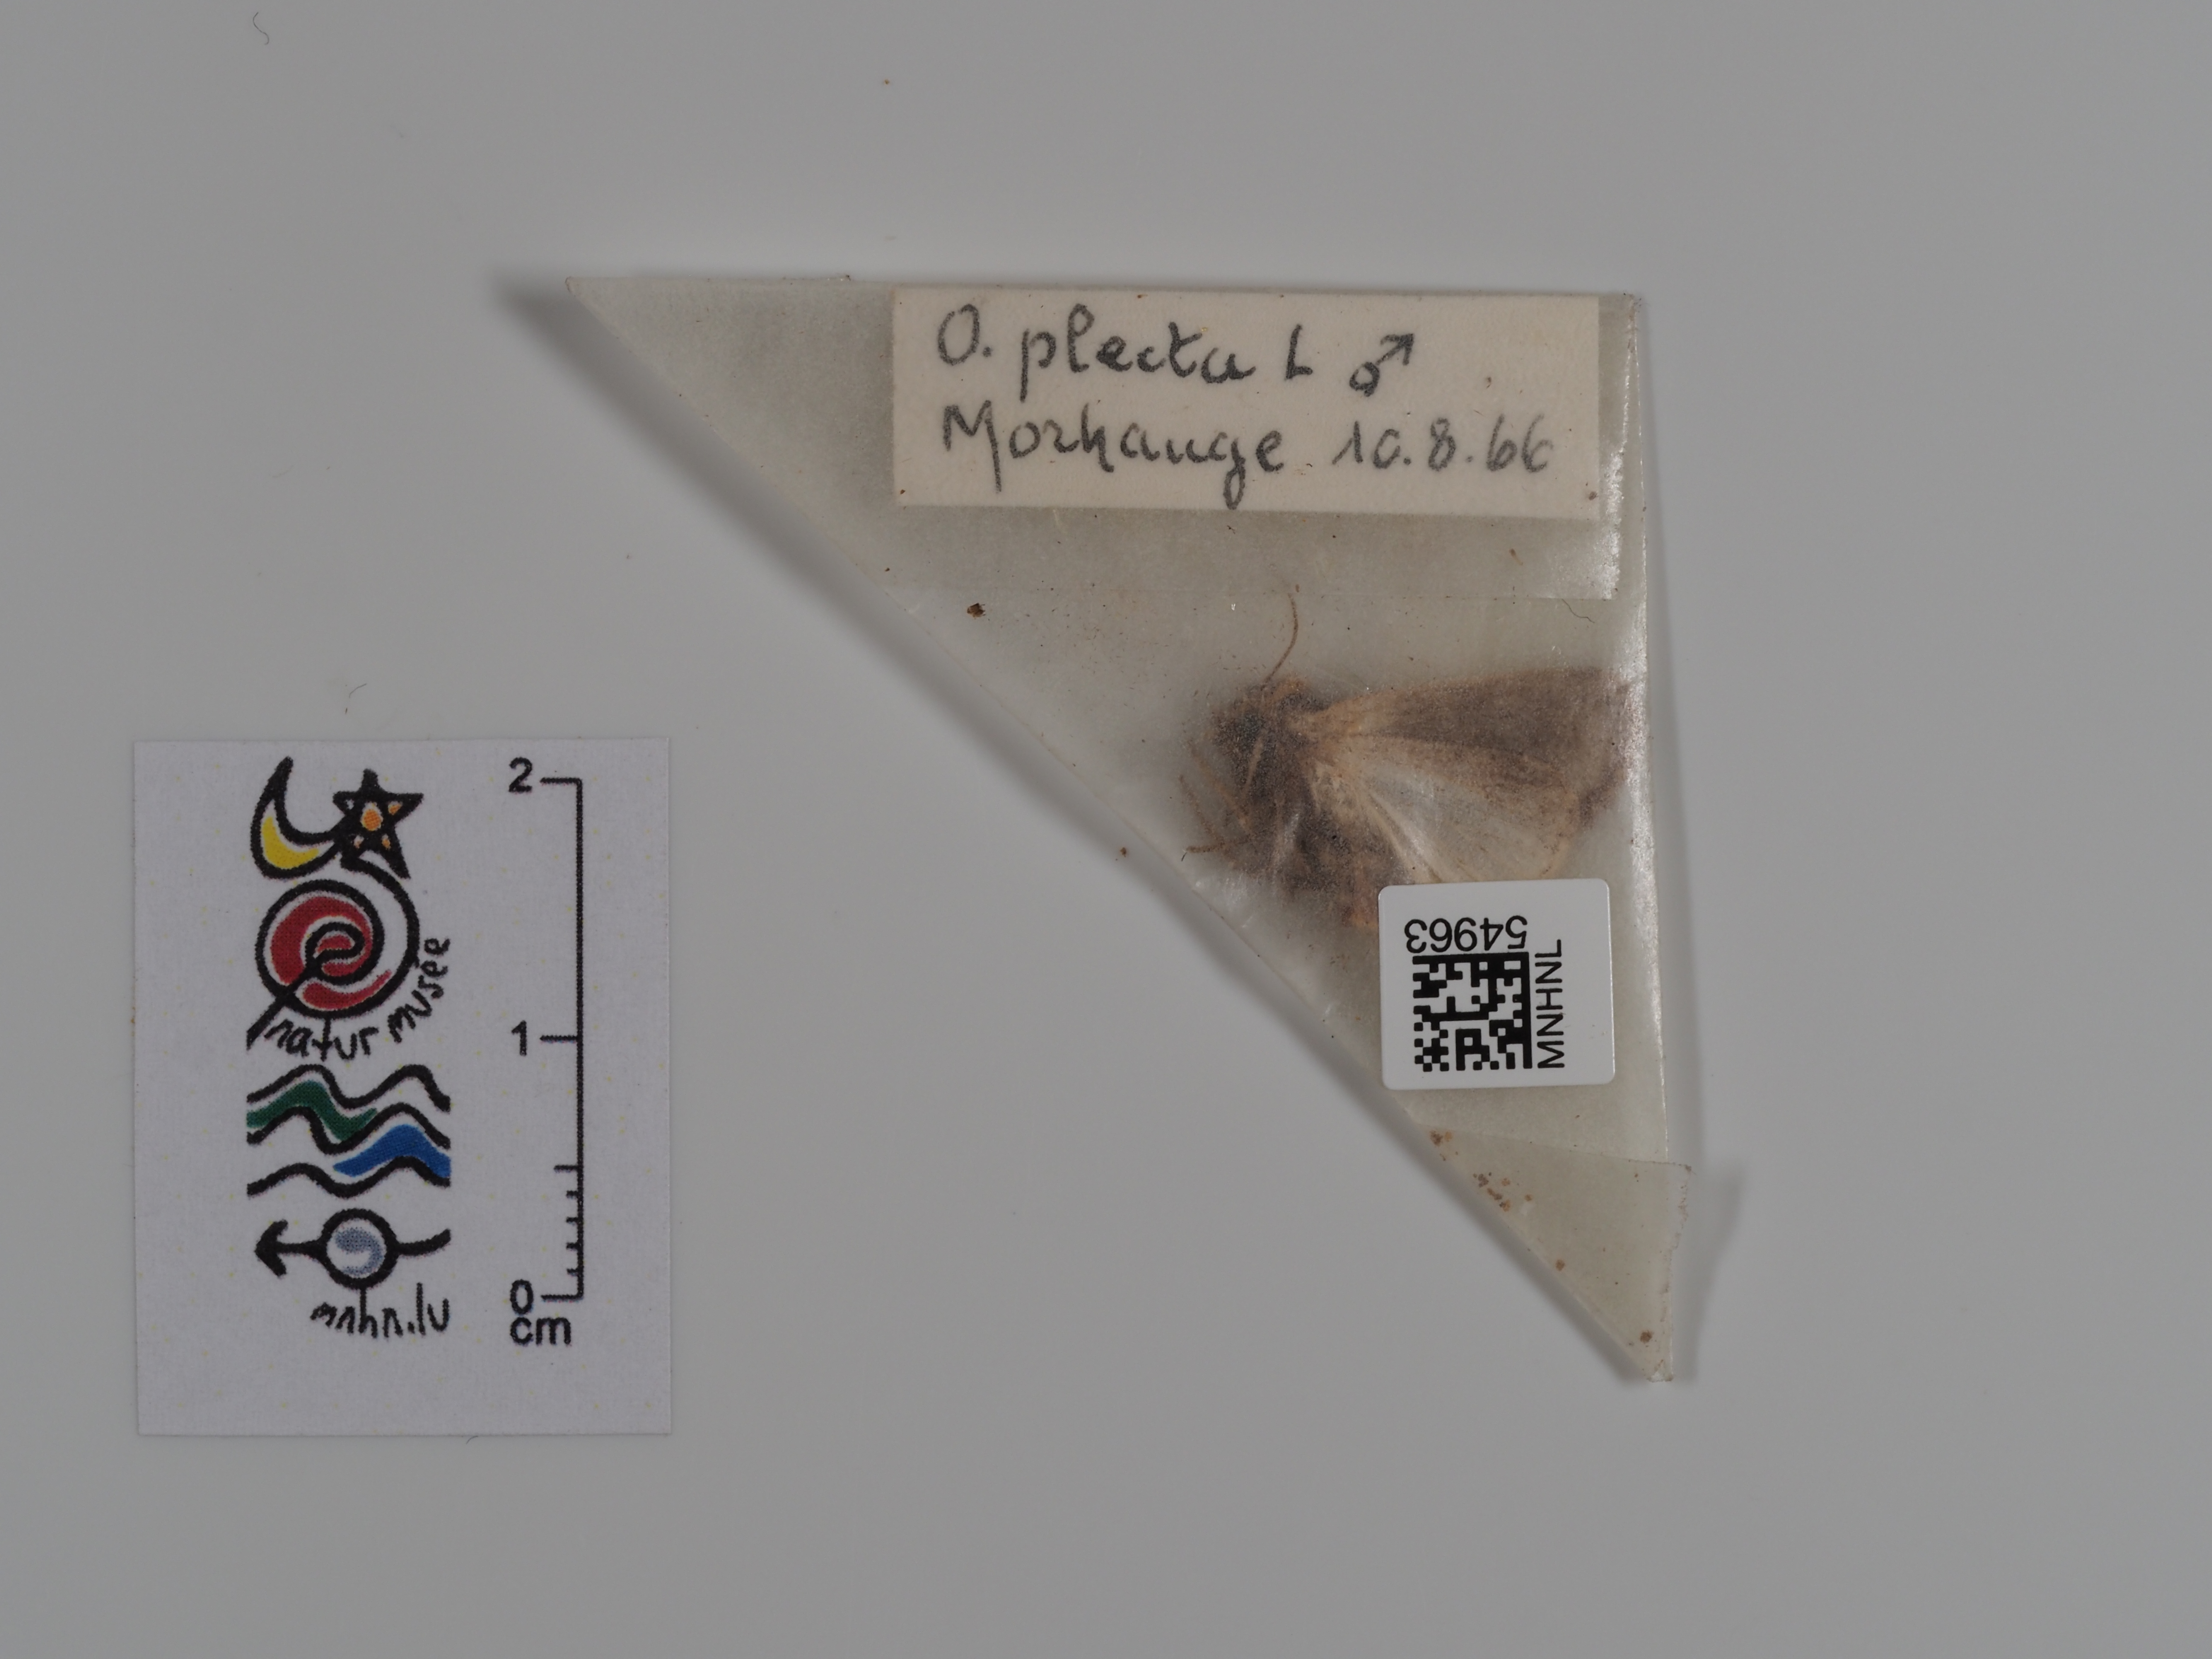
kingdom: Animalia
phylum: Arthropoda
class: Insecta
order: Lepidoptera
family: Noctuidae
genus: Ochropleura
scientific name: Ochropleura plecta
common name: Flame shoulder
